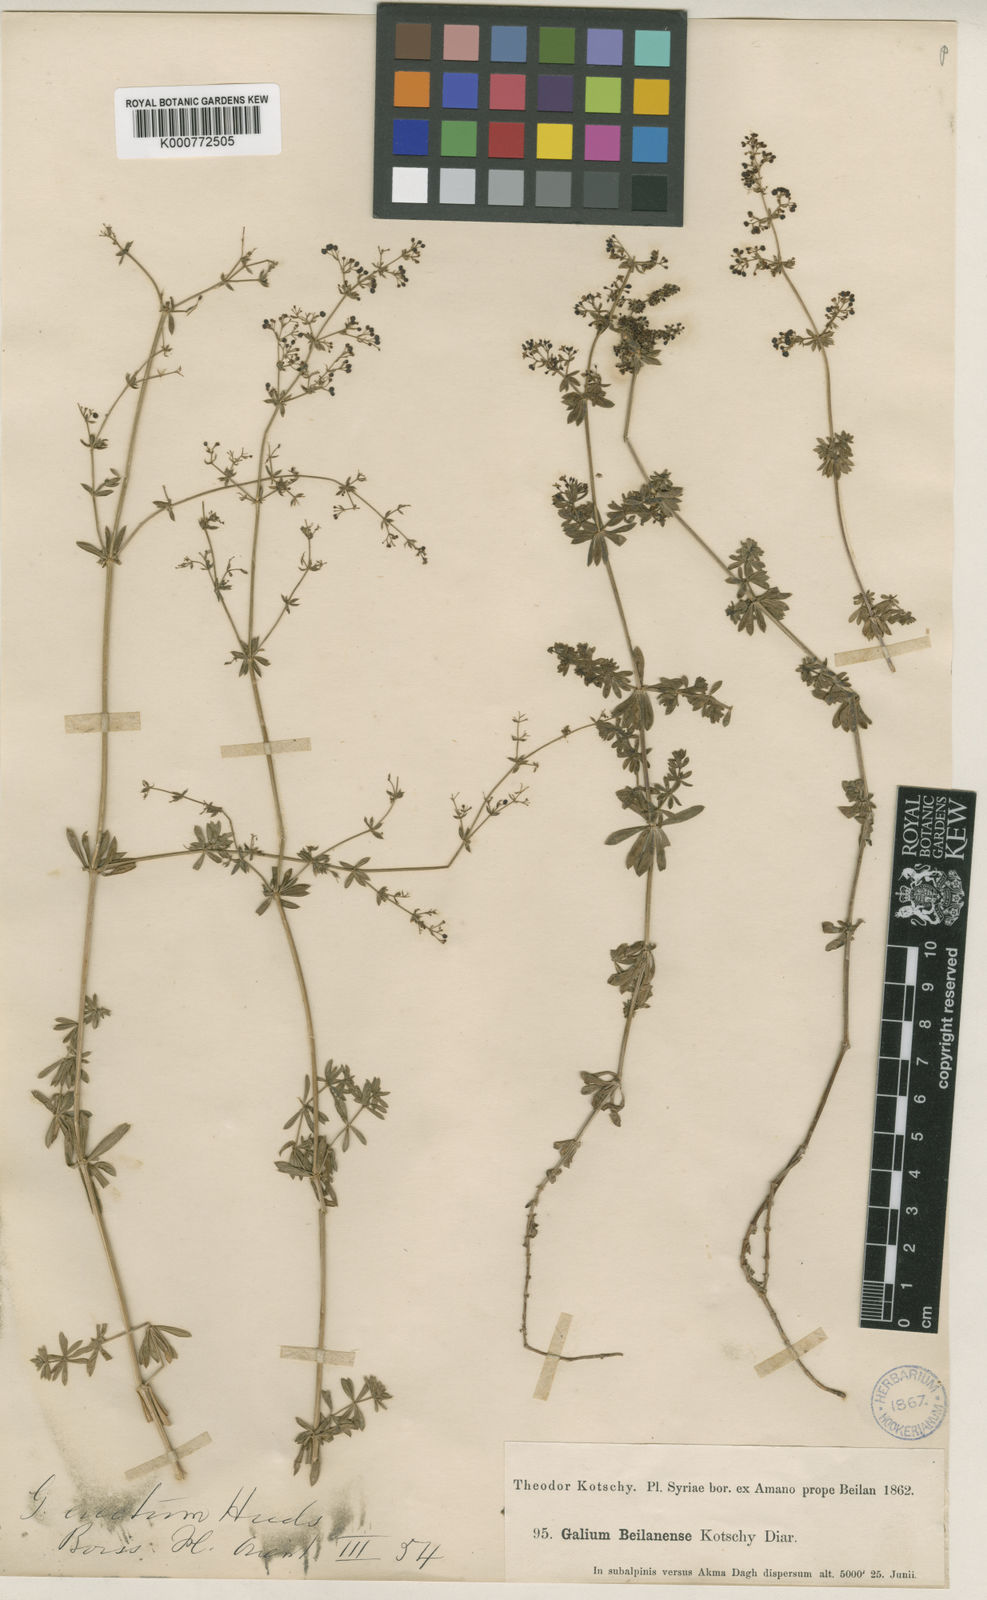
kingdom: Plantae
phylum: Tracheophyta
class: Magnoliopsida
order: Gentianales
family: Rubiaceae
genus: Galium
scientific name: Galium mollugo
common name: Hedge bedstraw
